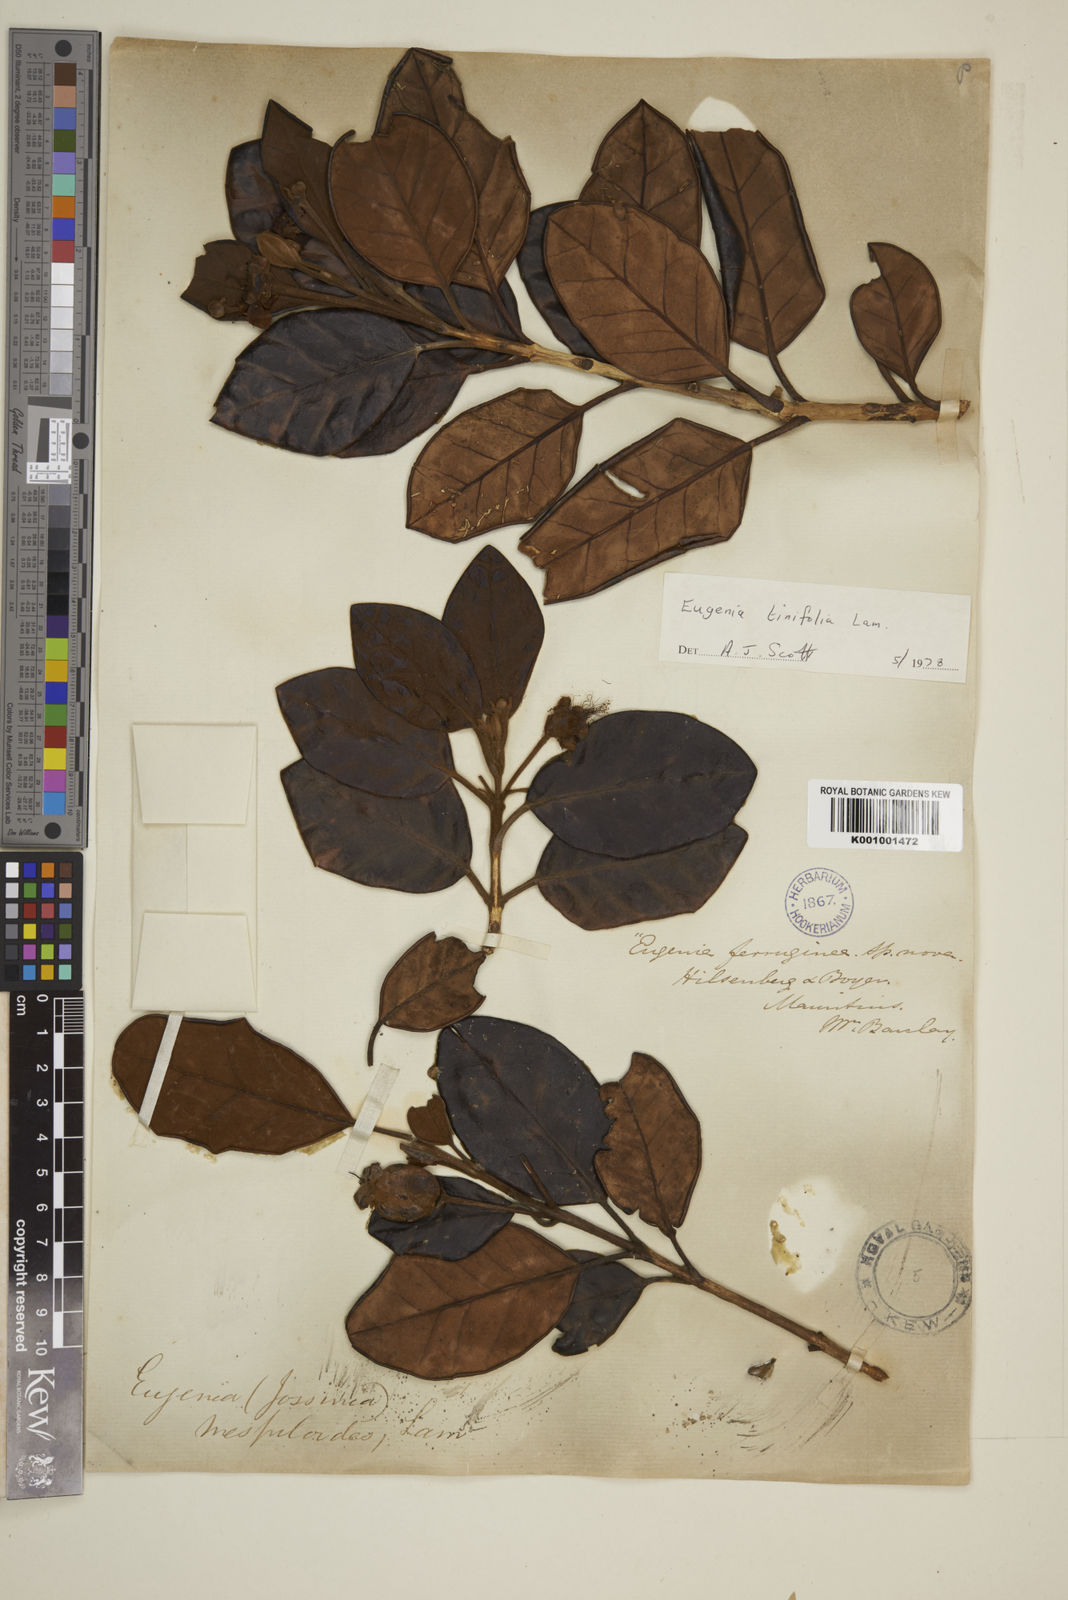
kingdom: Plantae
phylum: Tracheophyta
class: Magnoliopsida
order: Myrtales
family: Myrtaceae
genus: Eugenia
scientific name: Eugenia mespiloides
